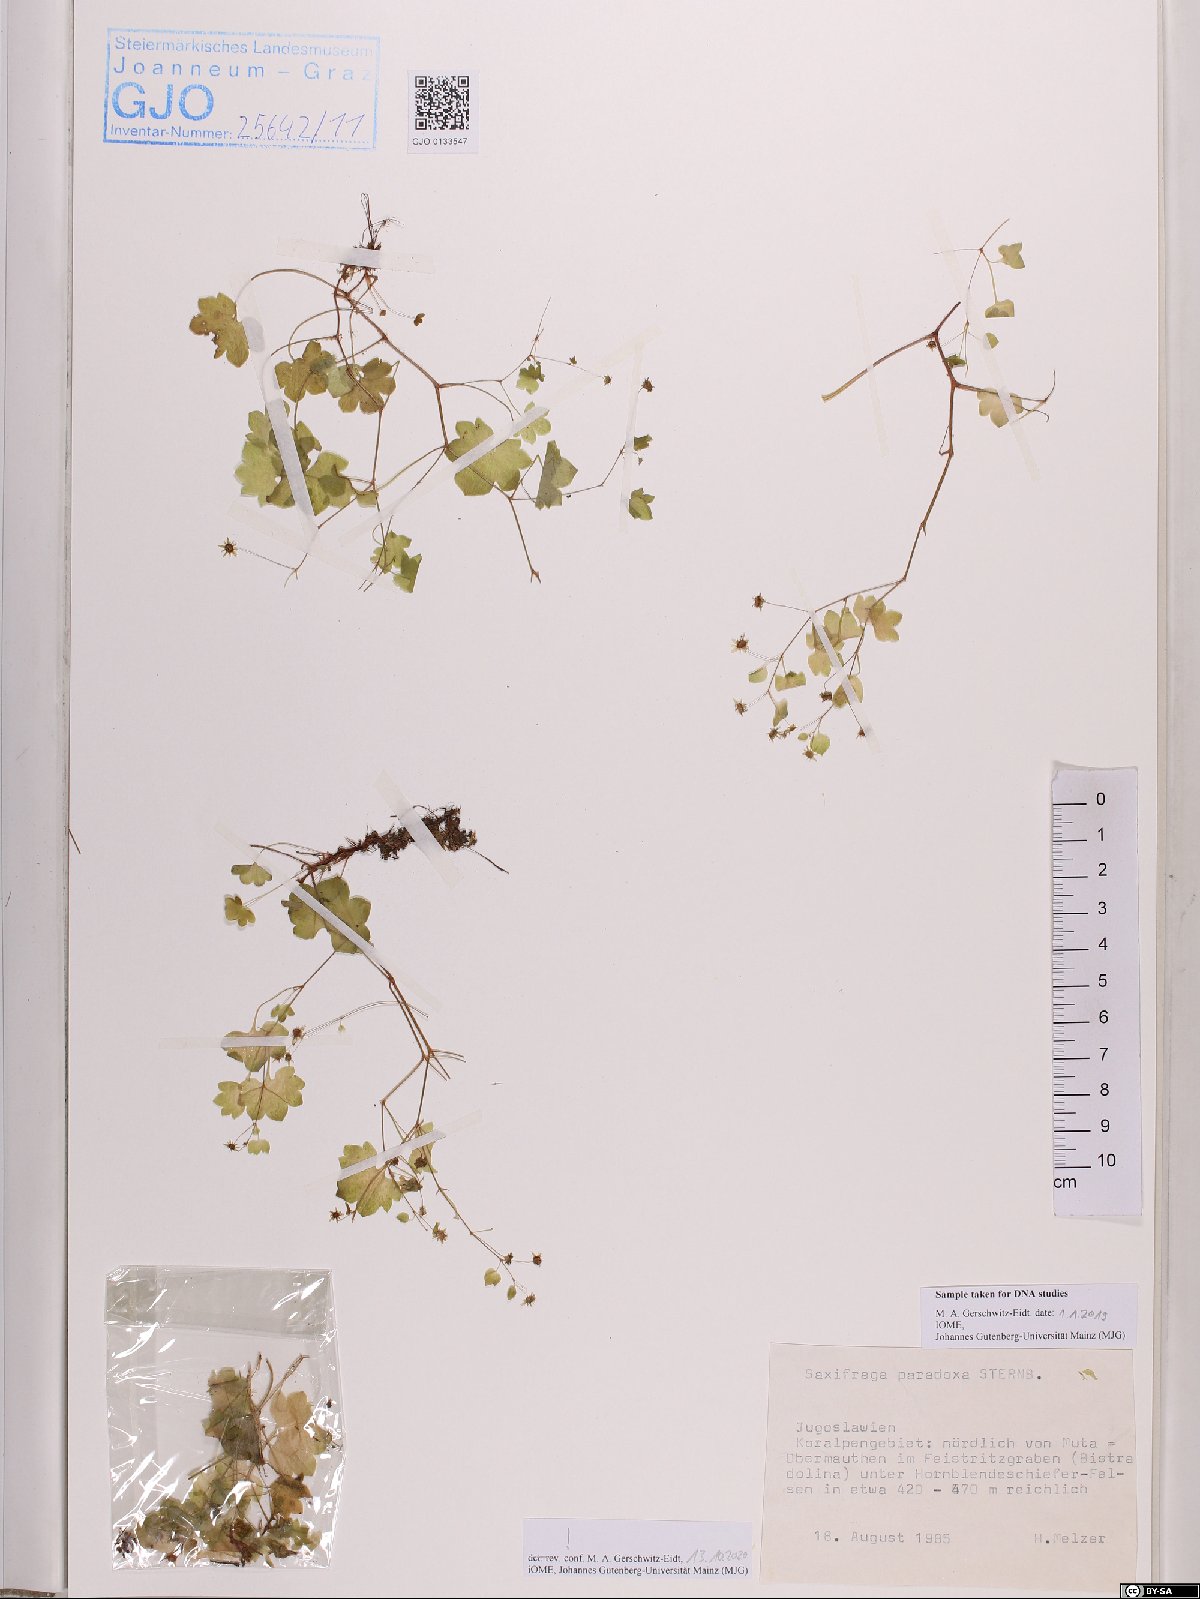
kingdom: Plantae
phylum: Tracheophyta
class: Magnoliopsida
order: Saxifragales
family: Saxifragaceae
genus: Saxifraga
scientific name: Saxifraga paradoxa
